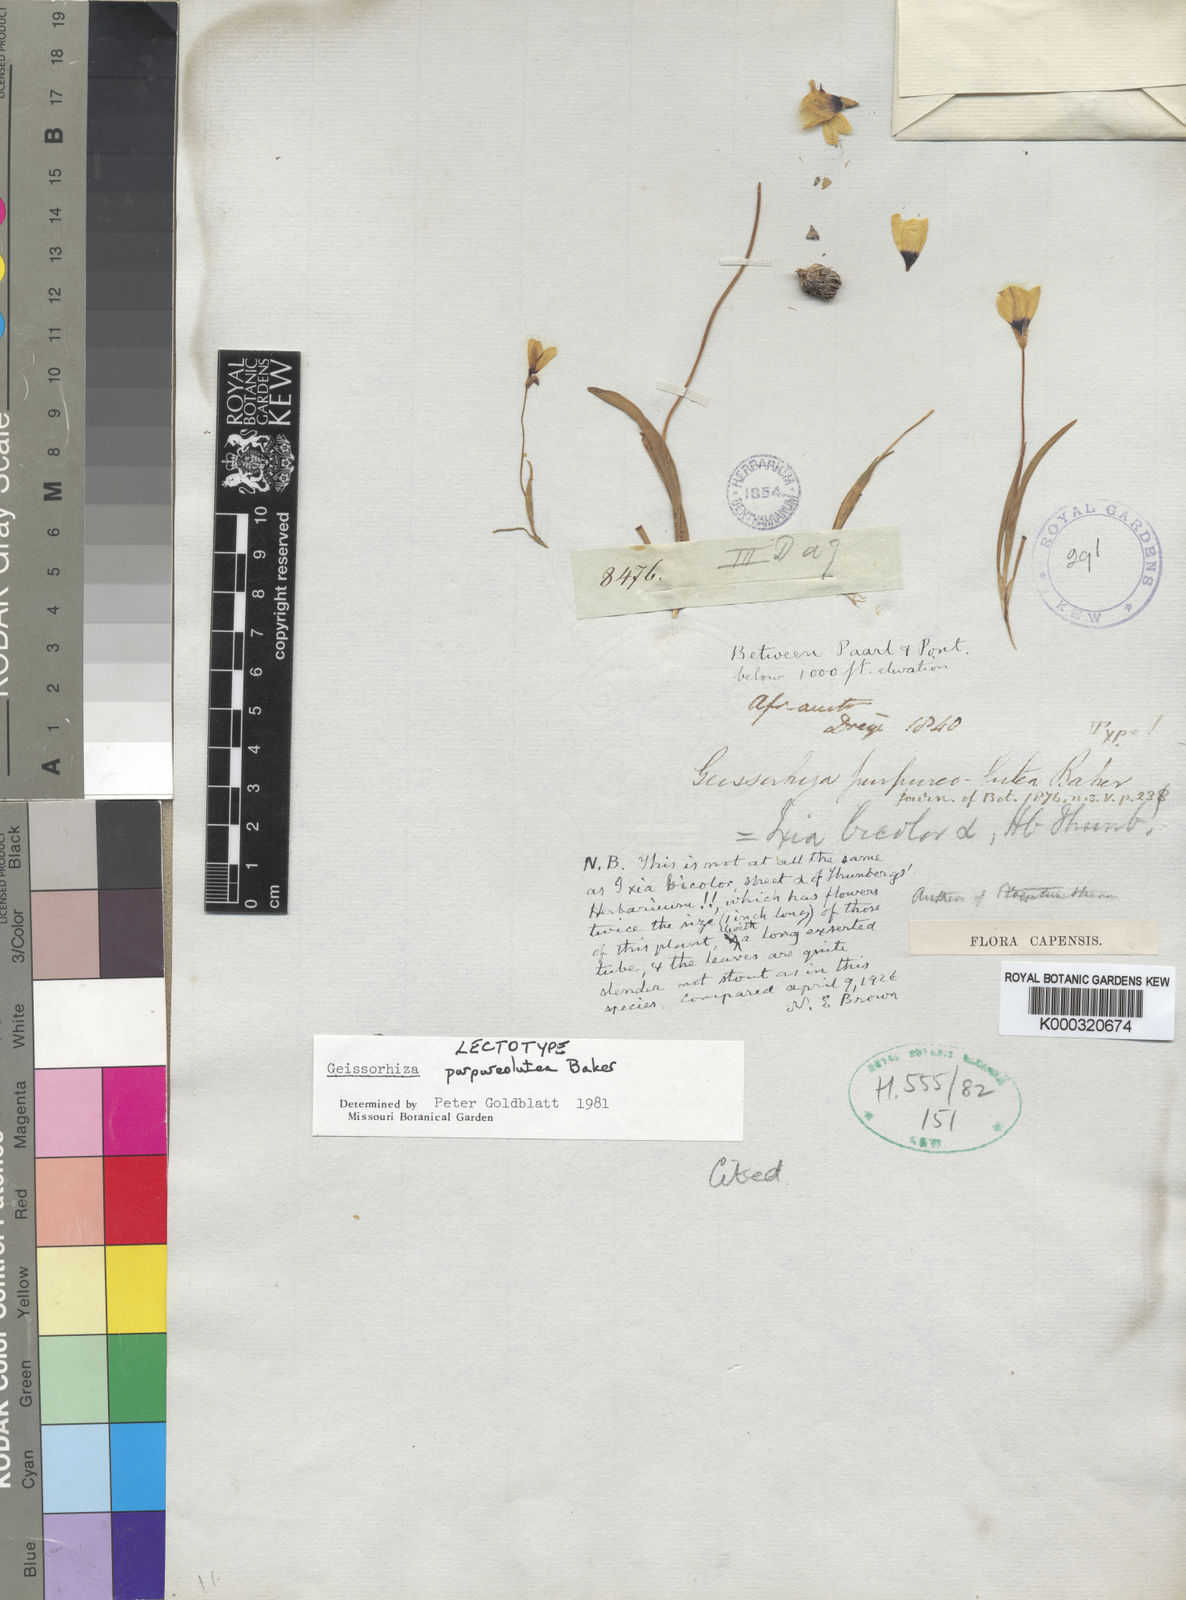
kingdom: Plantae
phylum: Tracheophyta
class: Liliopsida
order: Asparagales
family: Iridaceae
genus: Geissorhiza
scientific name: Geissorhiza purpureolutea
